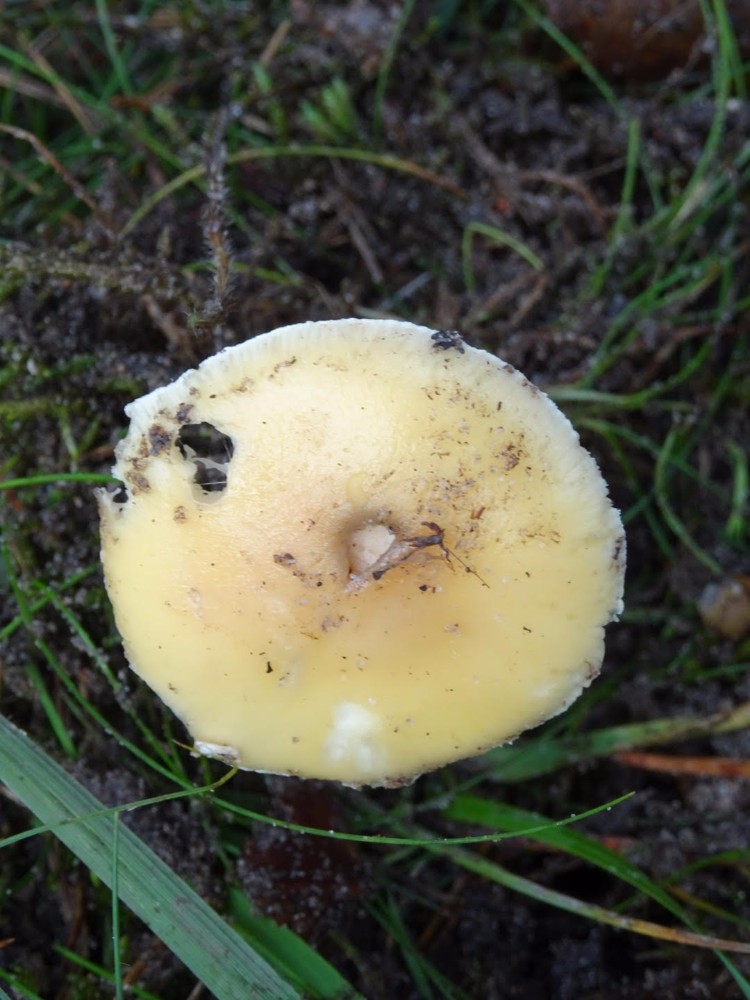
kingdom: Fungi
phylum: Basidiomycota
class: Agaricomycetes
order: Agaricales
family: Amanitaceae
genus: Amanita
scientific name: Amanita gemmata
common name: okkergul fluesvamp
